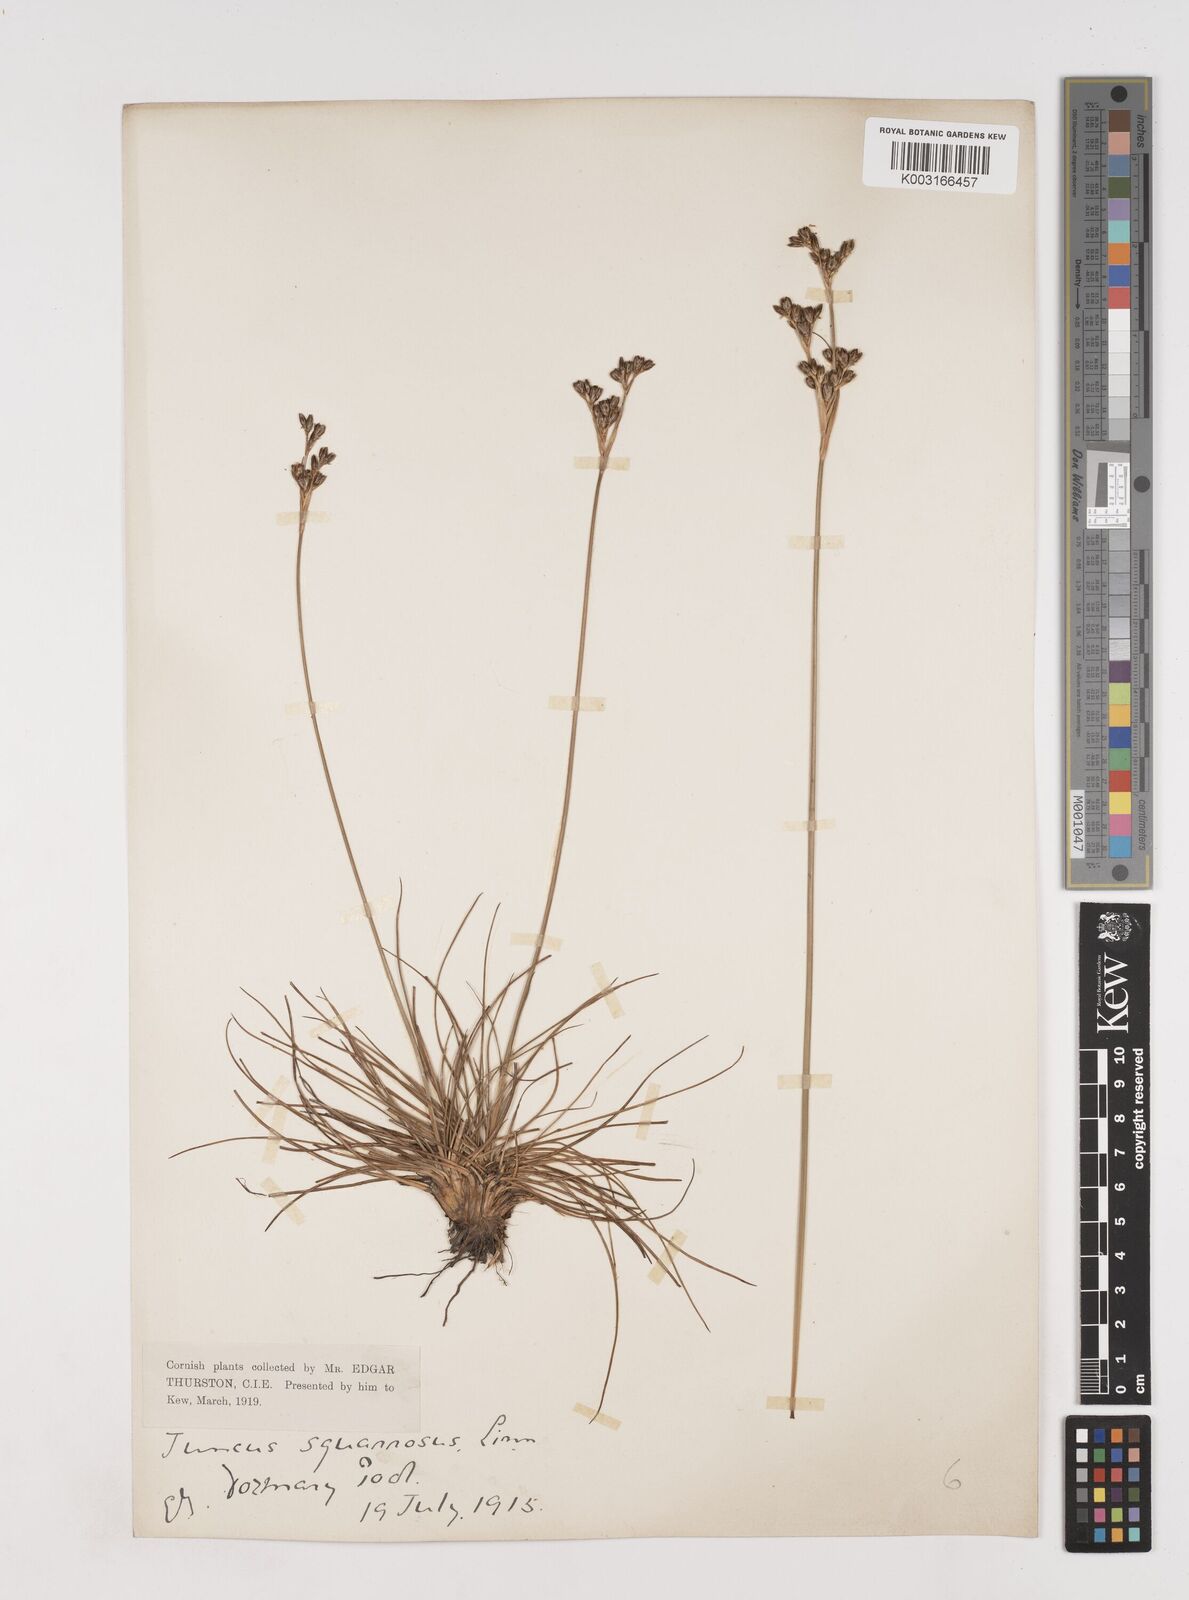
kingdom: Plantae
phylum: Tracheophyta
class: Liliopsida
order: Poales
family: Juncaceae
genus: Juncus
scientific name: Juncus squarrosus
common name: Heath rush
